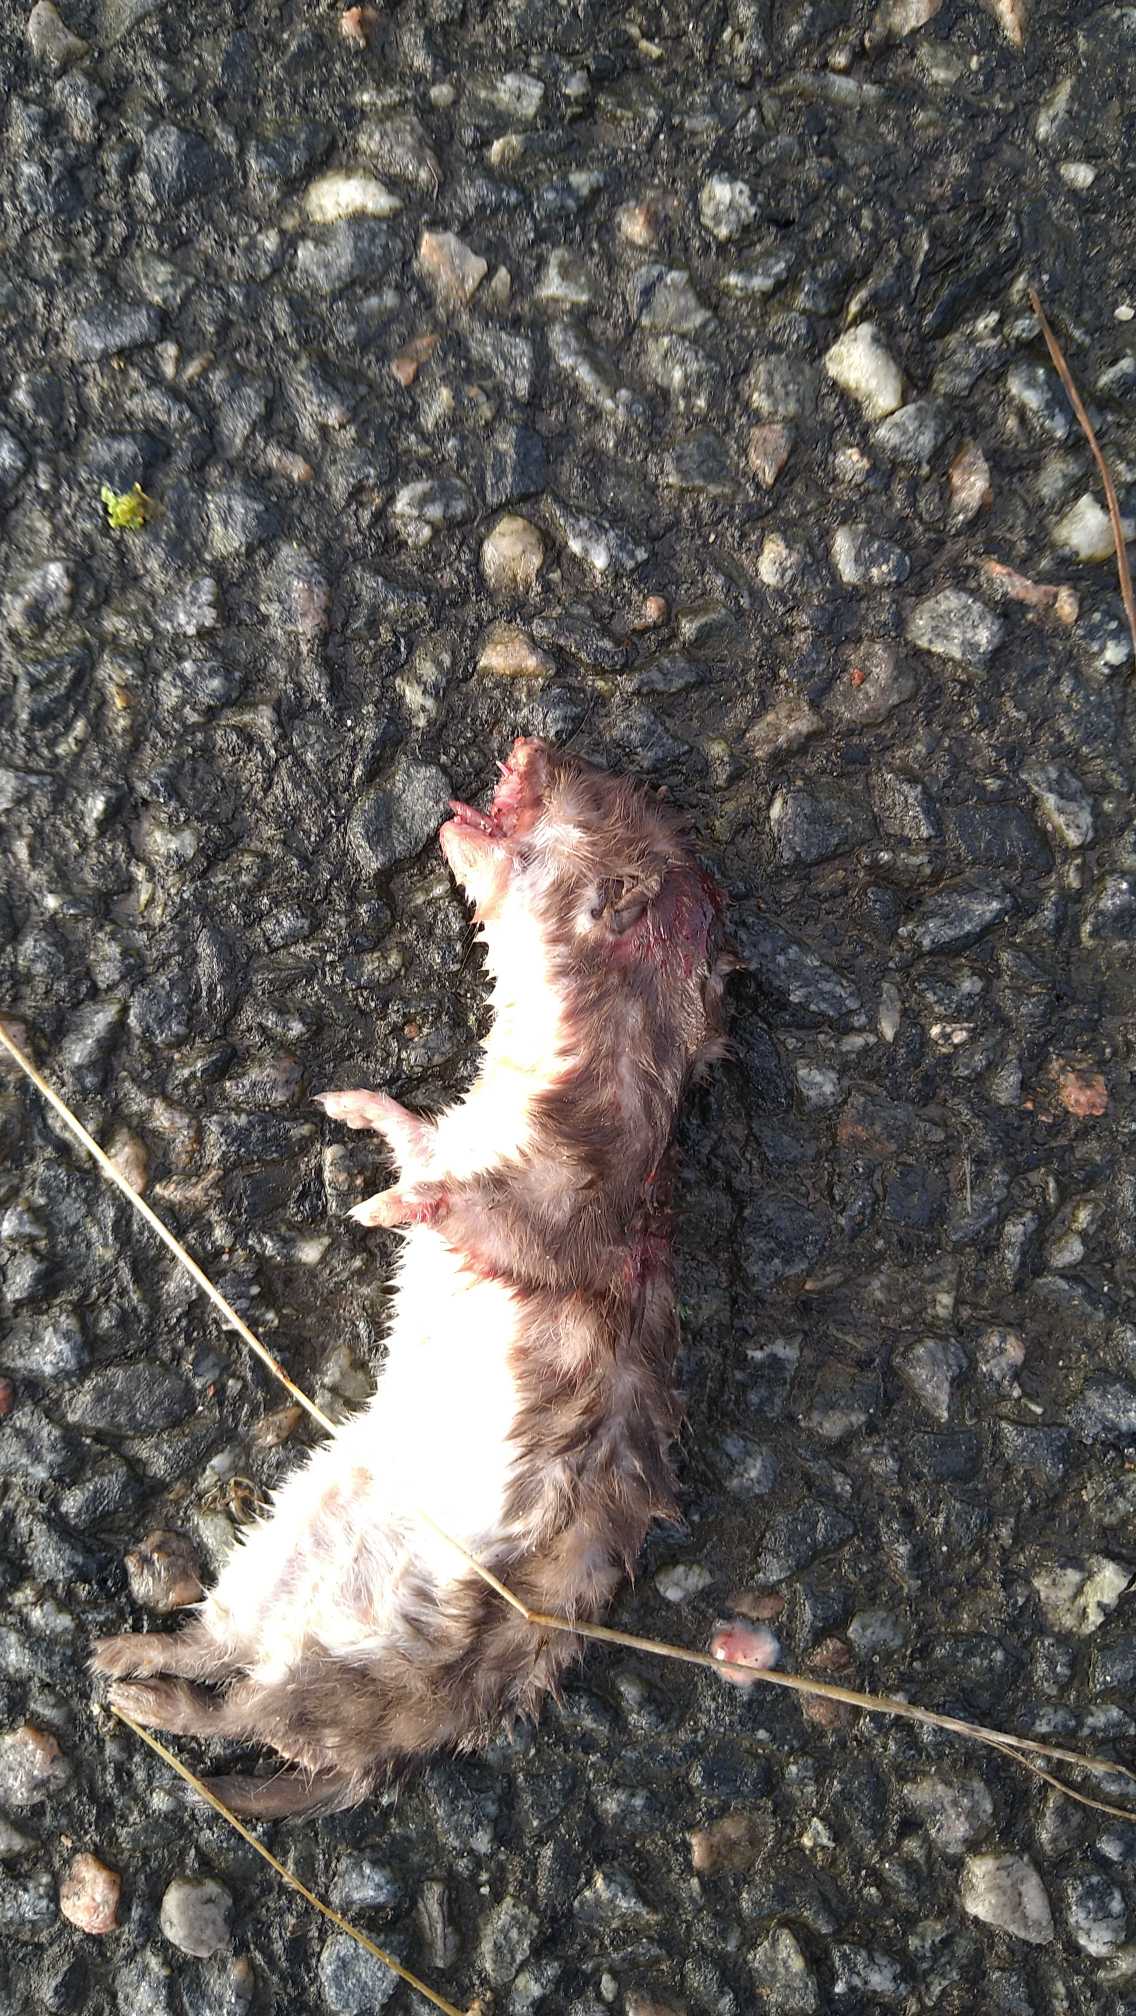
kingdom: Animalia
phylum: Chordata
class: Mammalia
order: Carnivora
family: Mustelidae
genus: Mustela
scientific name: Mustela nivalis
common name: Brud
